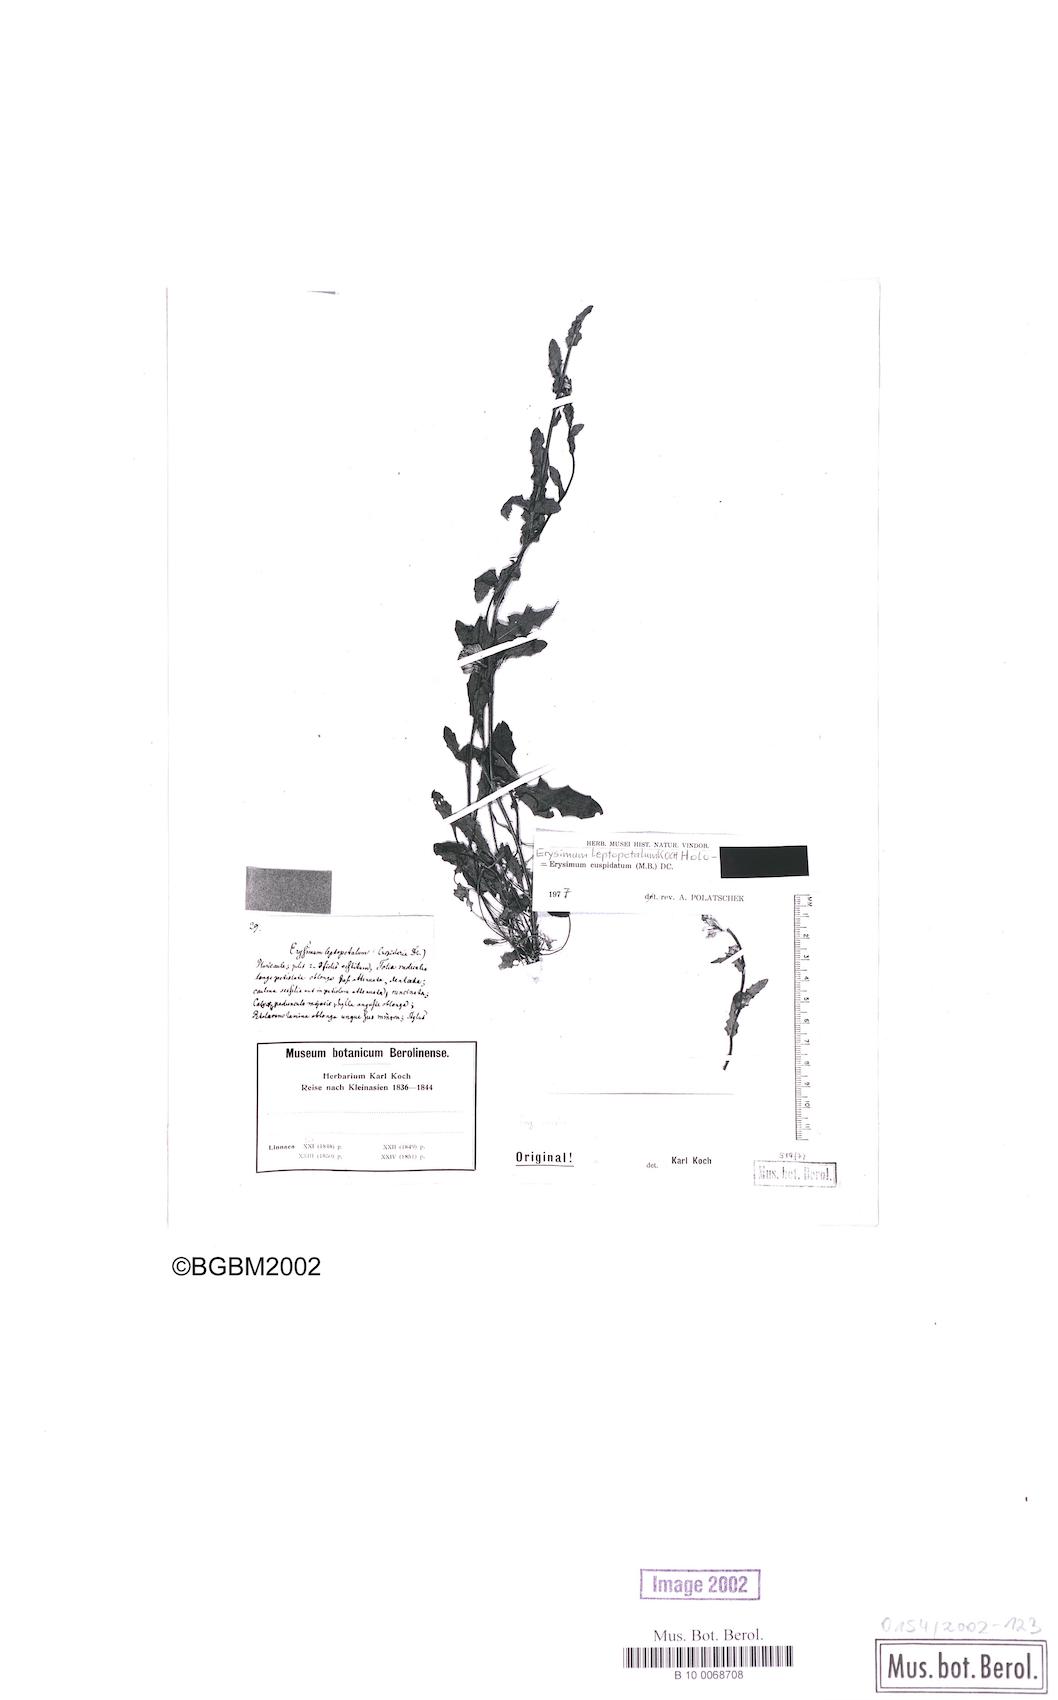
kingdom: Plantae
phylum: Tracheophyta
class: Magnoliopsida
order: Brassicales
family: Brassicaceae
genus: Erysimum
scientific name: Erysimum cuspidatum
